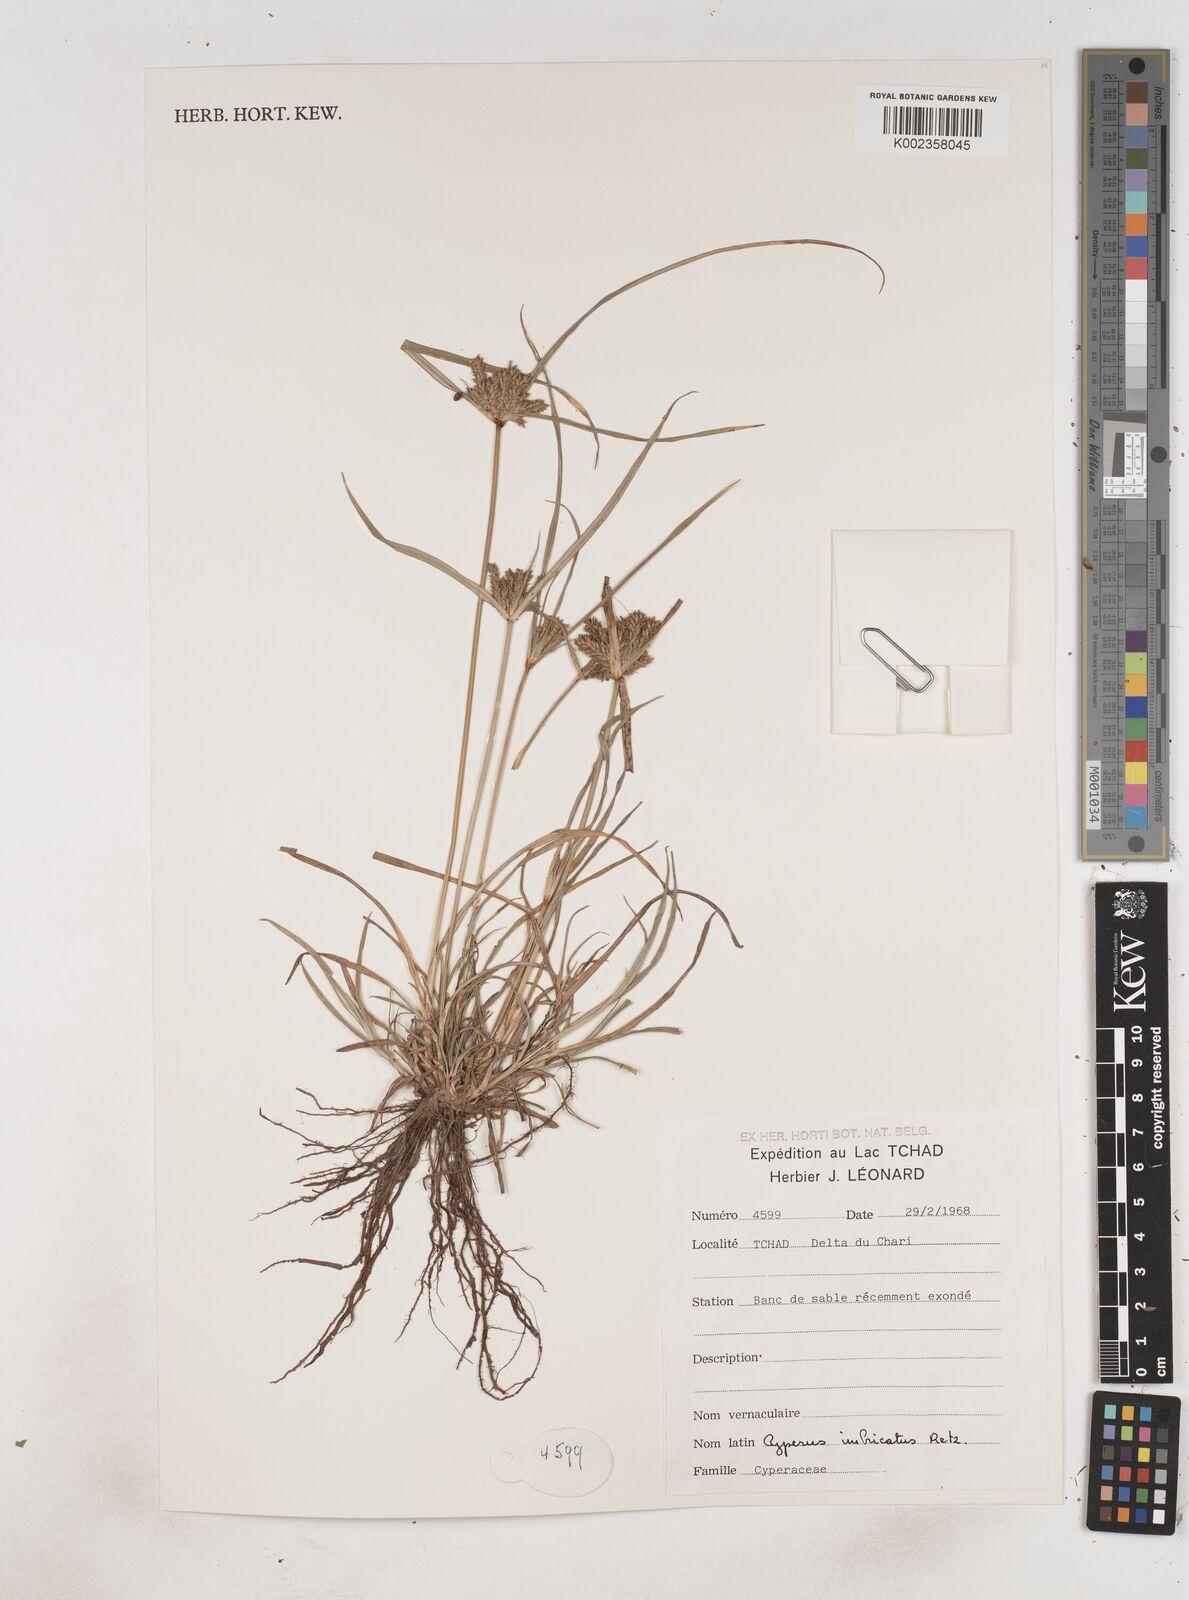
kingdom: Plantae
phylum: Tracheophyta
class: Liliopsida
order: Poales
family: Cyperaceae
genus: Cyperus
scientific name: Cyperus imbricatus
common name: Shingle flatsedge
